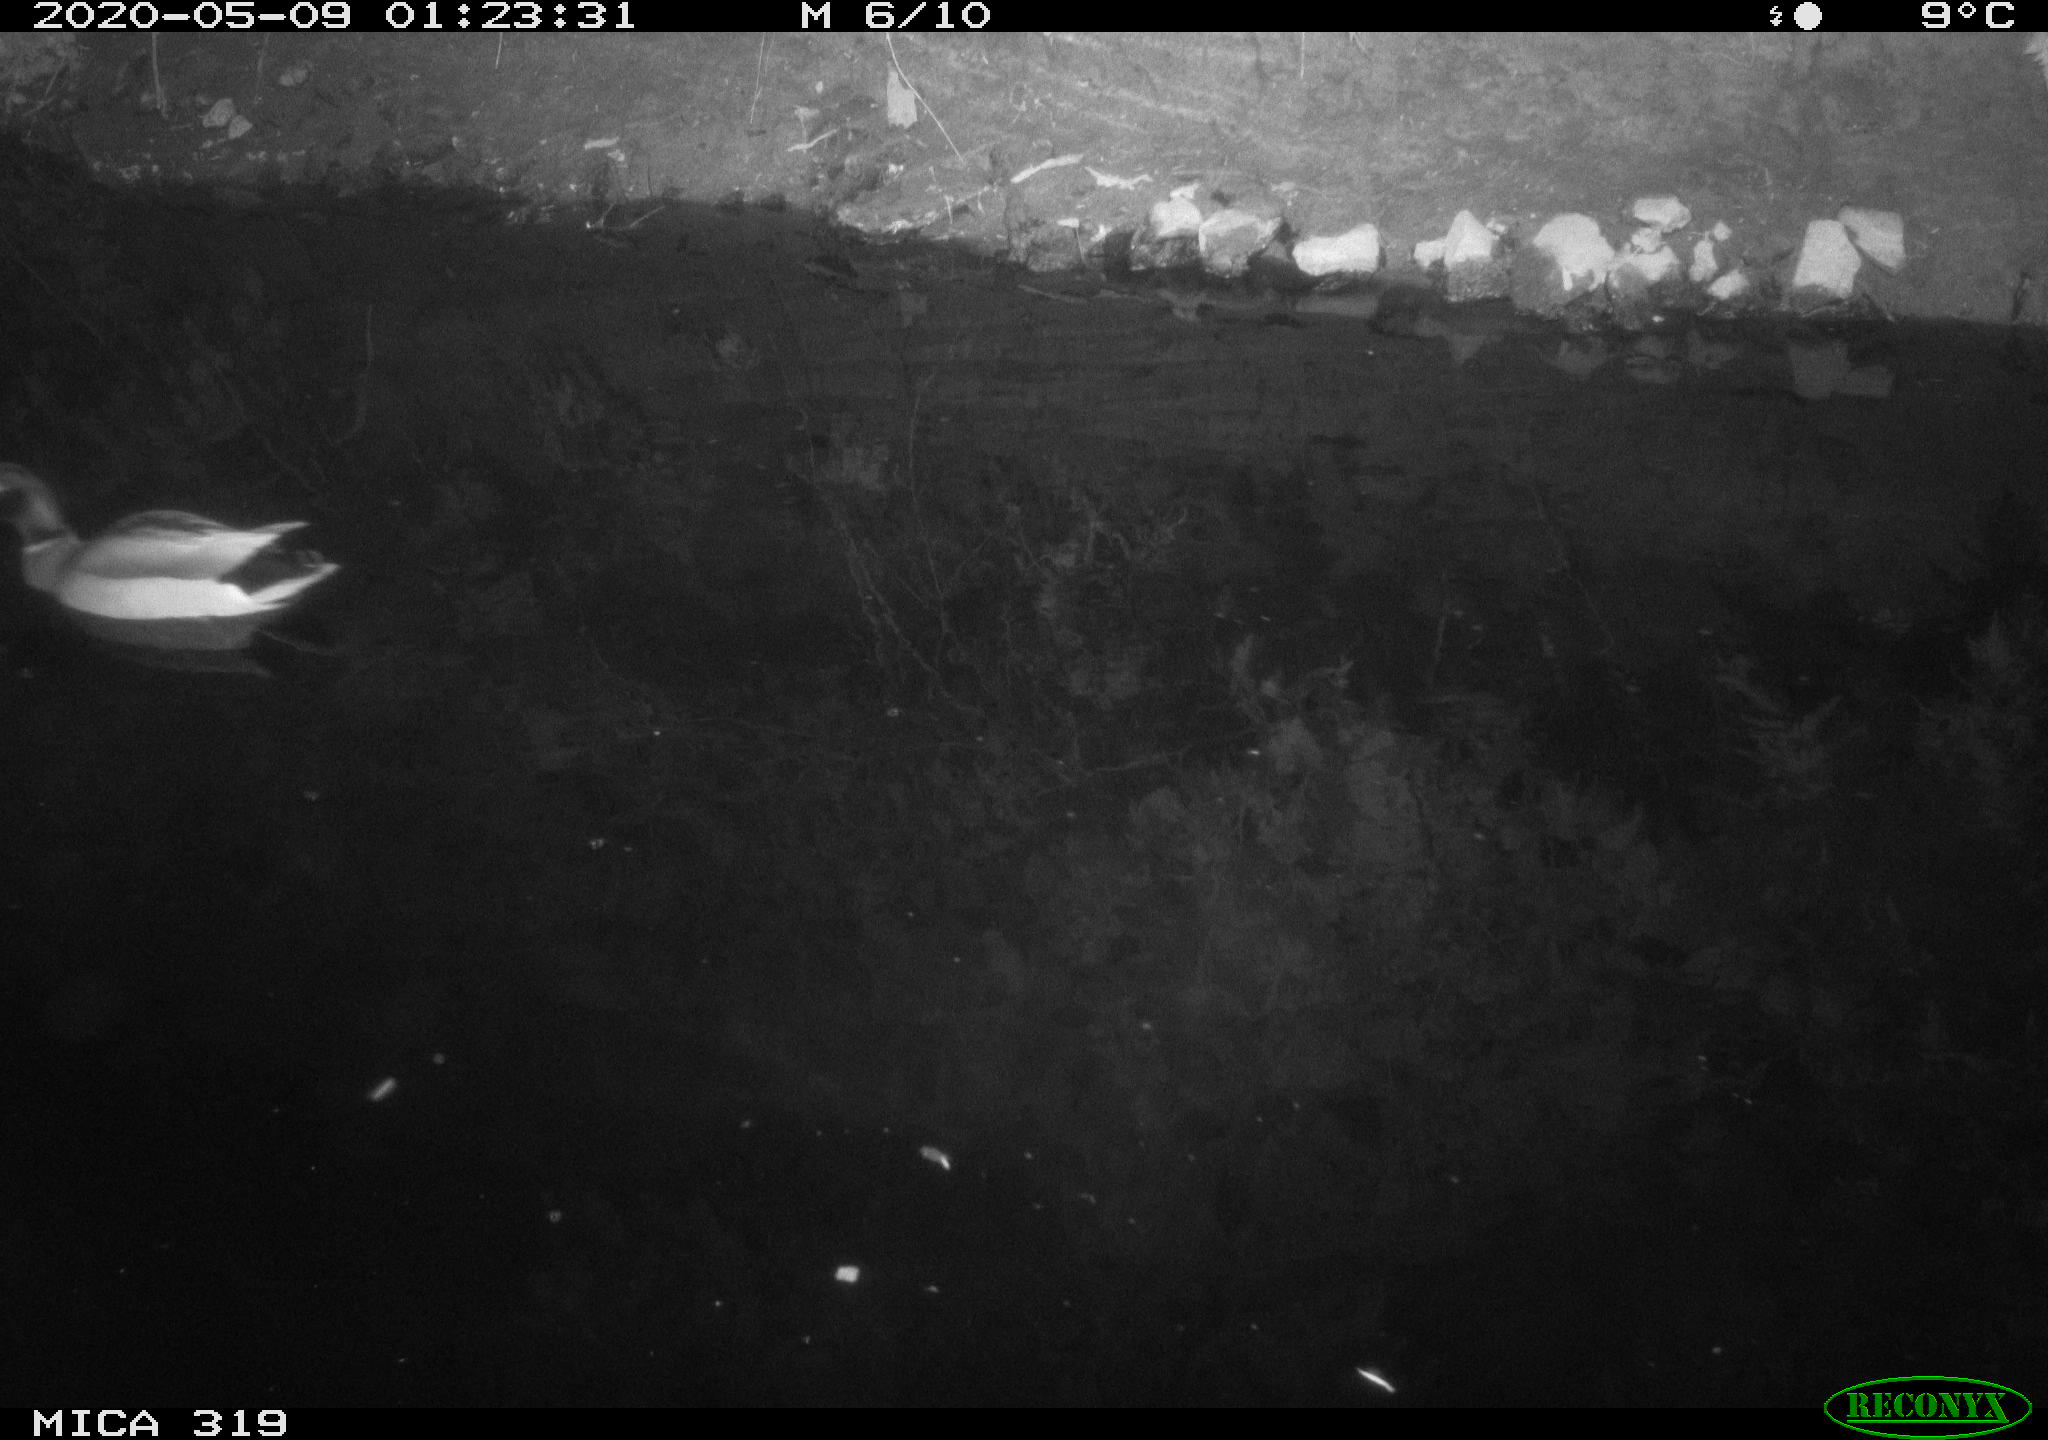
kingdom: Animalia
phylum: Chordata
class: Aves
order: Anseriformes
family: Anatidae
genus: Anas
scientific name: Anas platyrhynchos
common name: Mallard
